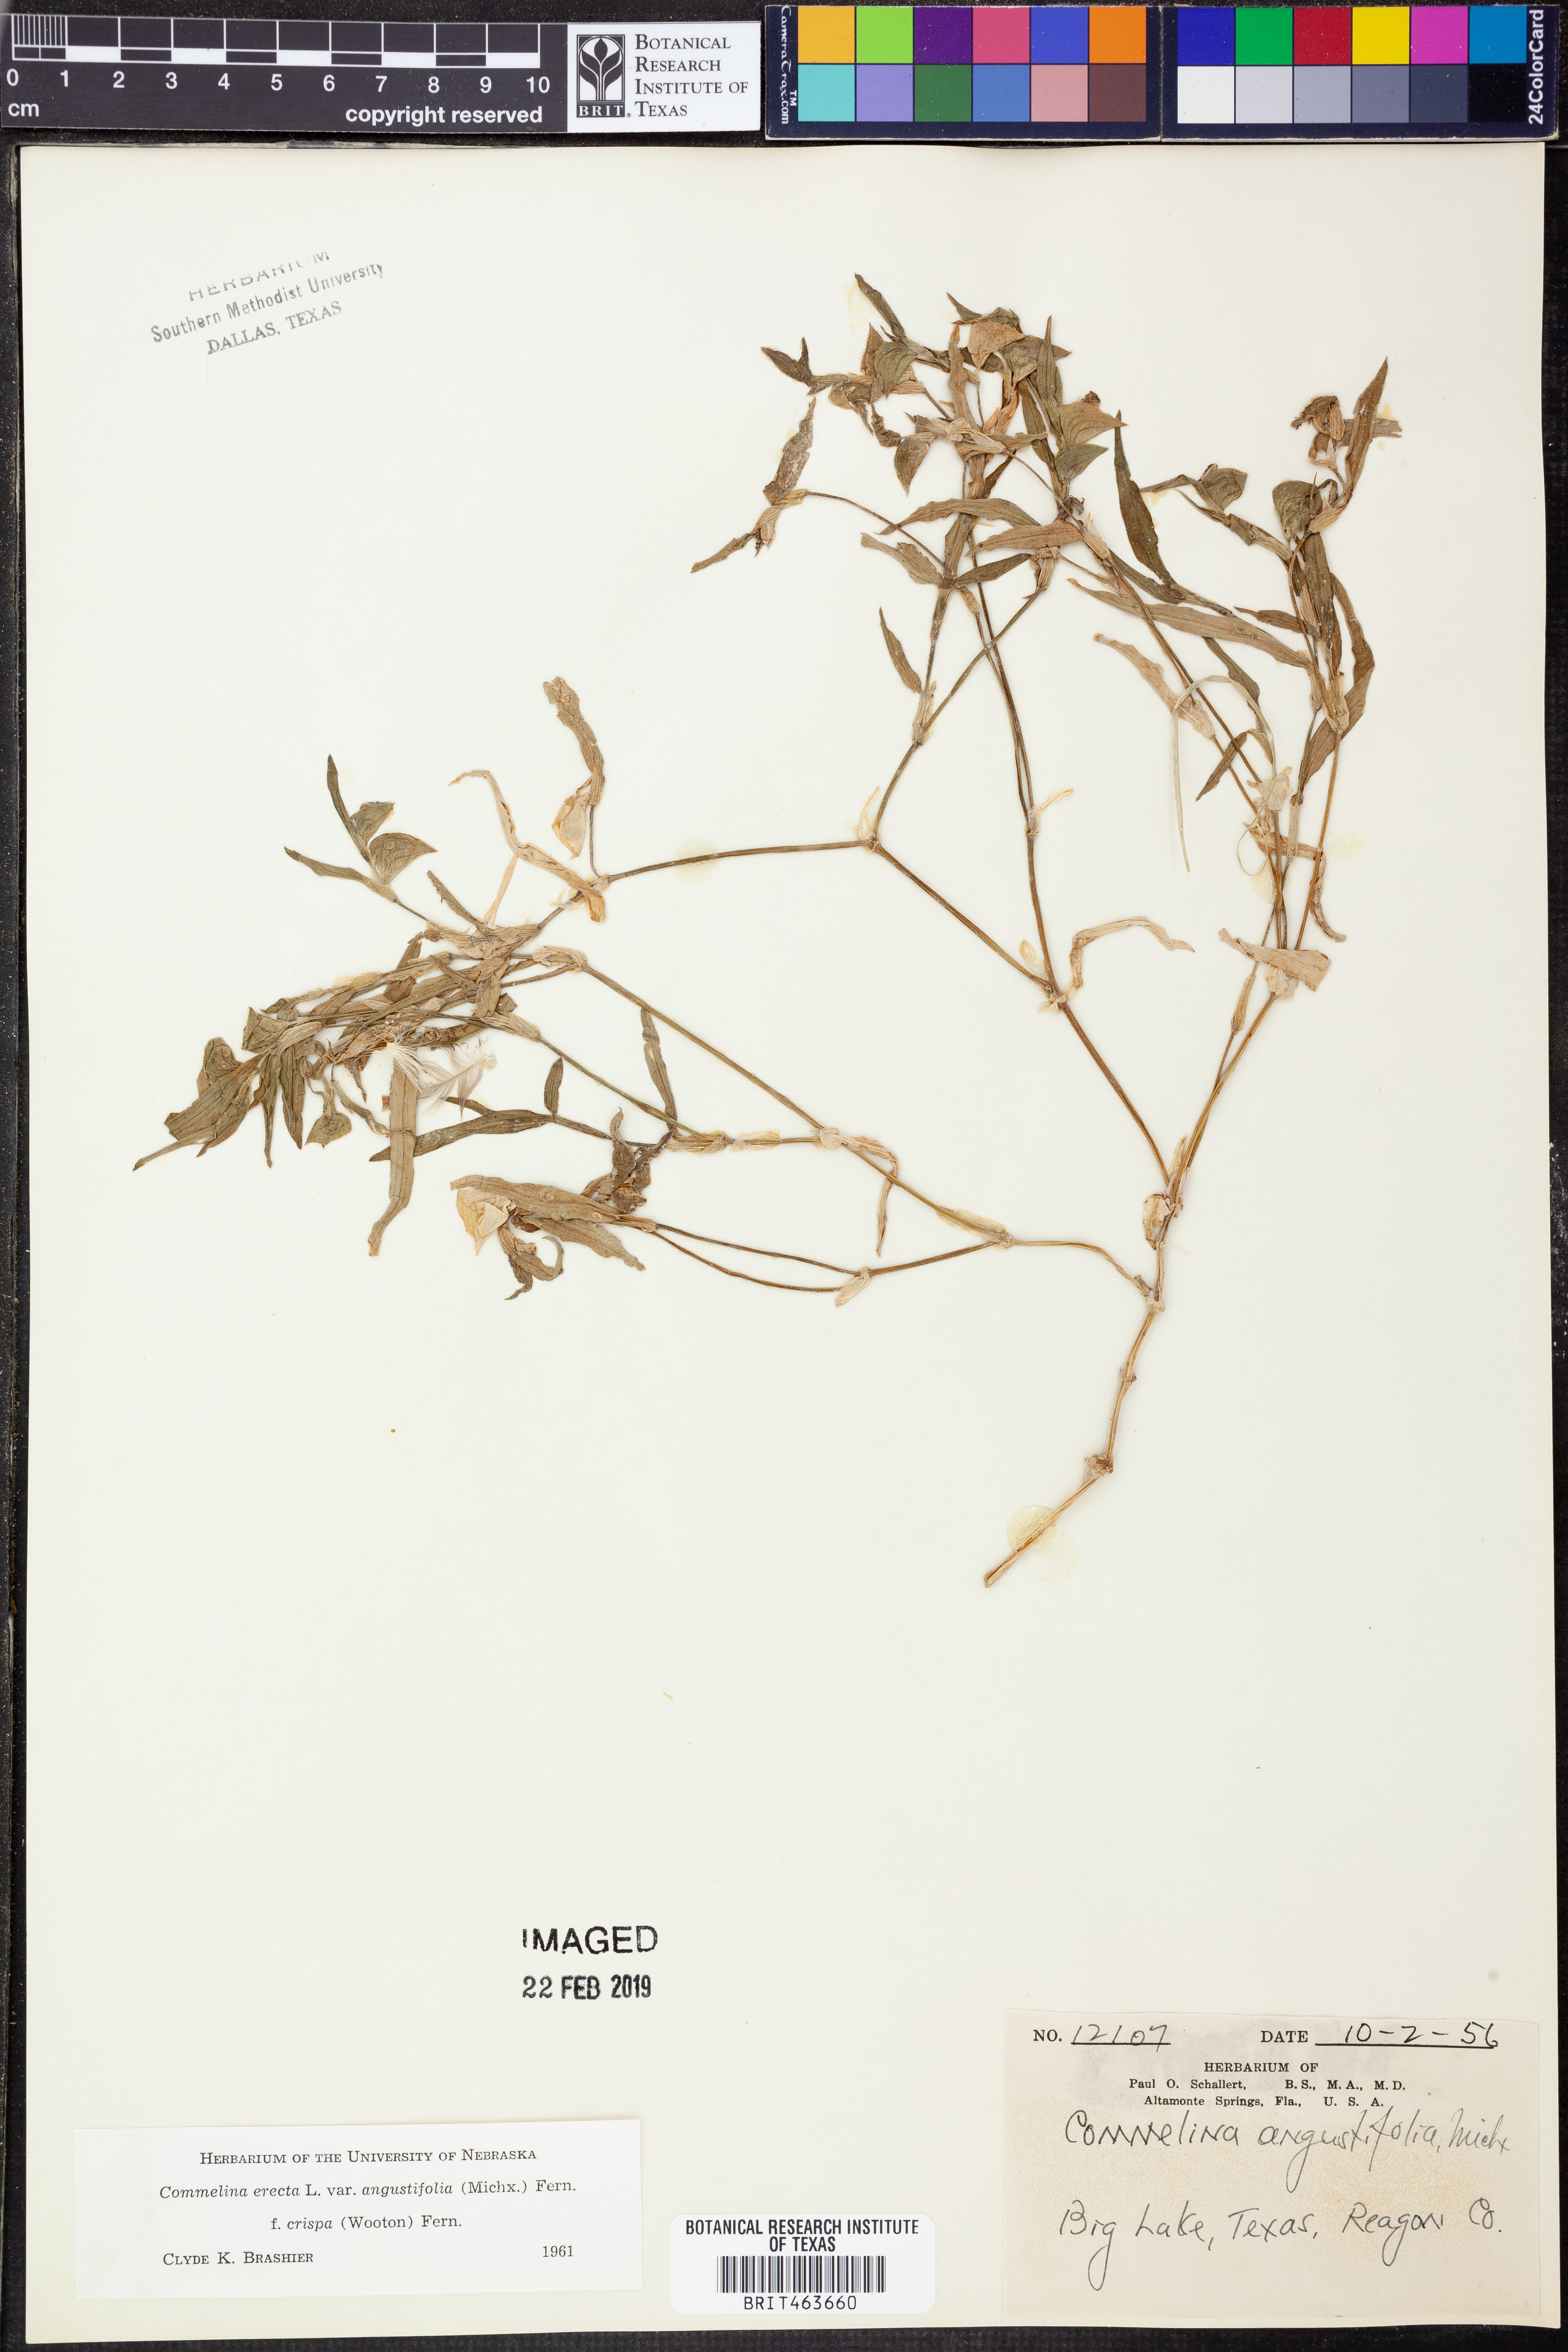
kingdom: Plantae
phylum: Tracheophyta
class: Liliopsida
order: Commelinales
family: Commelinaceae
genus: Commelina
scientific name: Commelina erecta
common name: Blousel blommetjie
